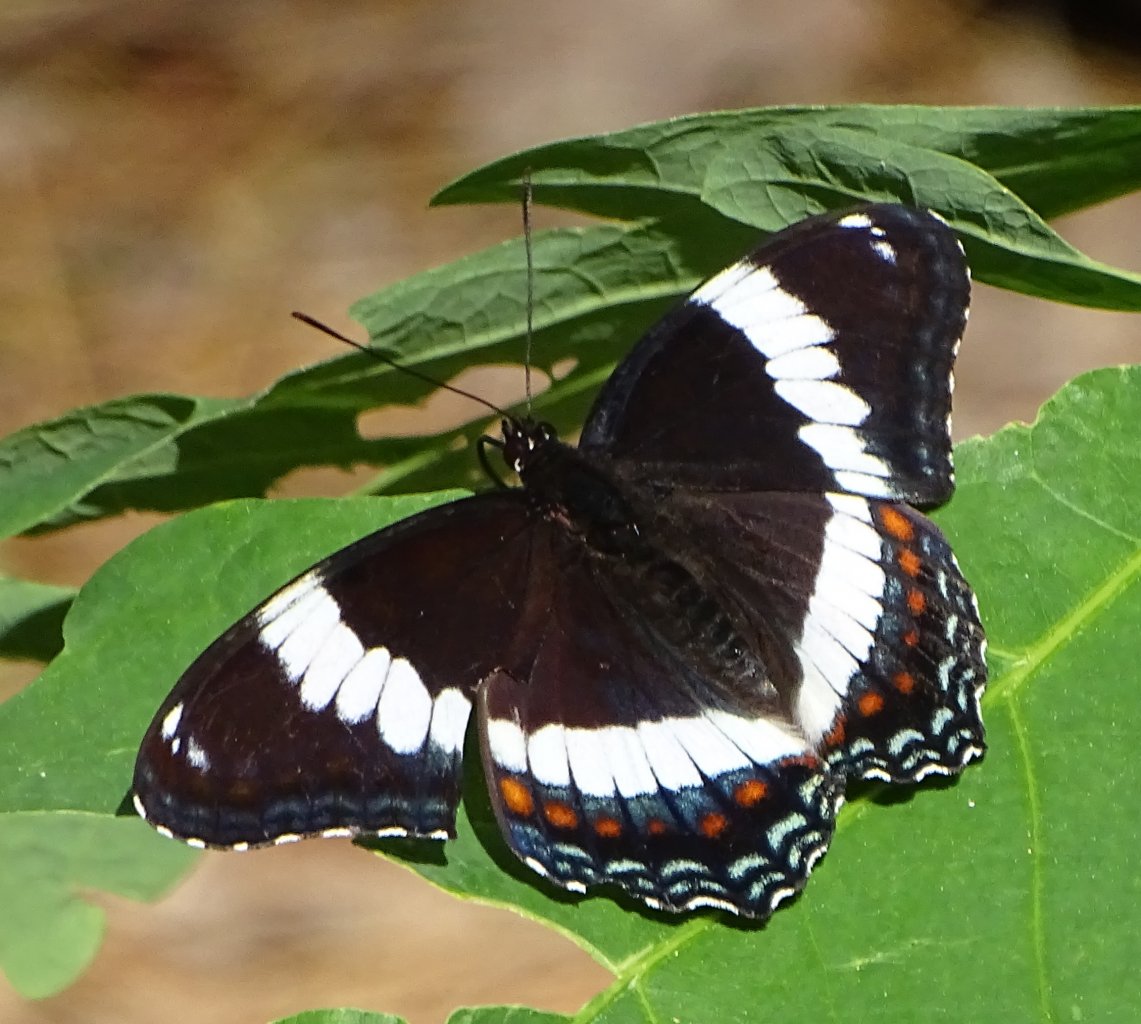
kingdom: Animalia
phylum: Arthropoda
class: Insecta
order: Lepidoptera
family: Nymphalidae
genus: Limenitis
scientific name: Limenitis arthemis
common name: Red-spotted Admiral
